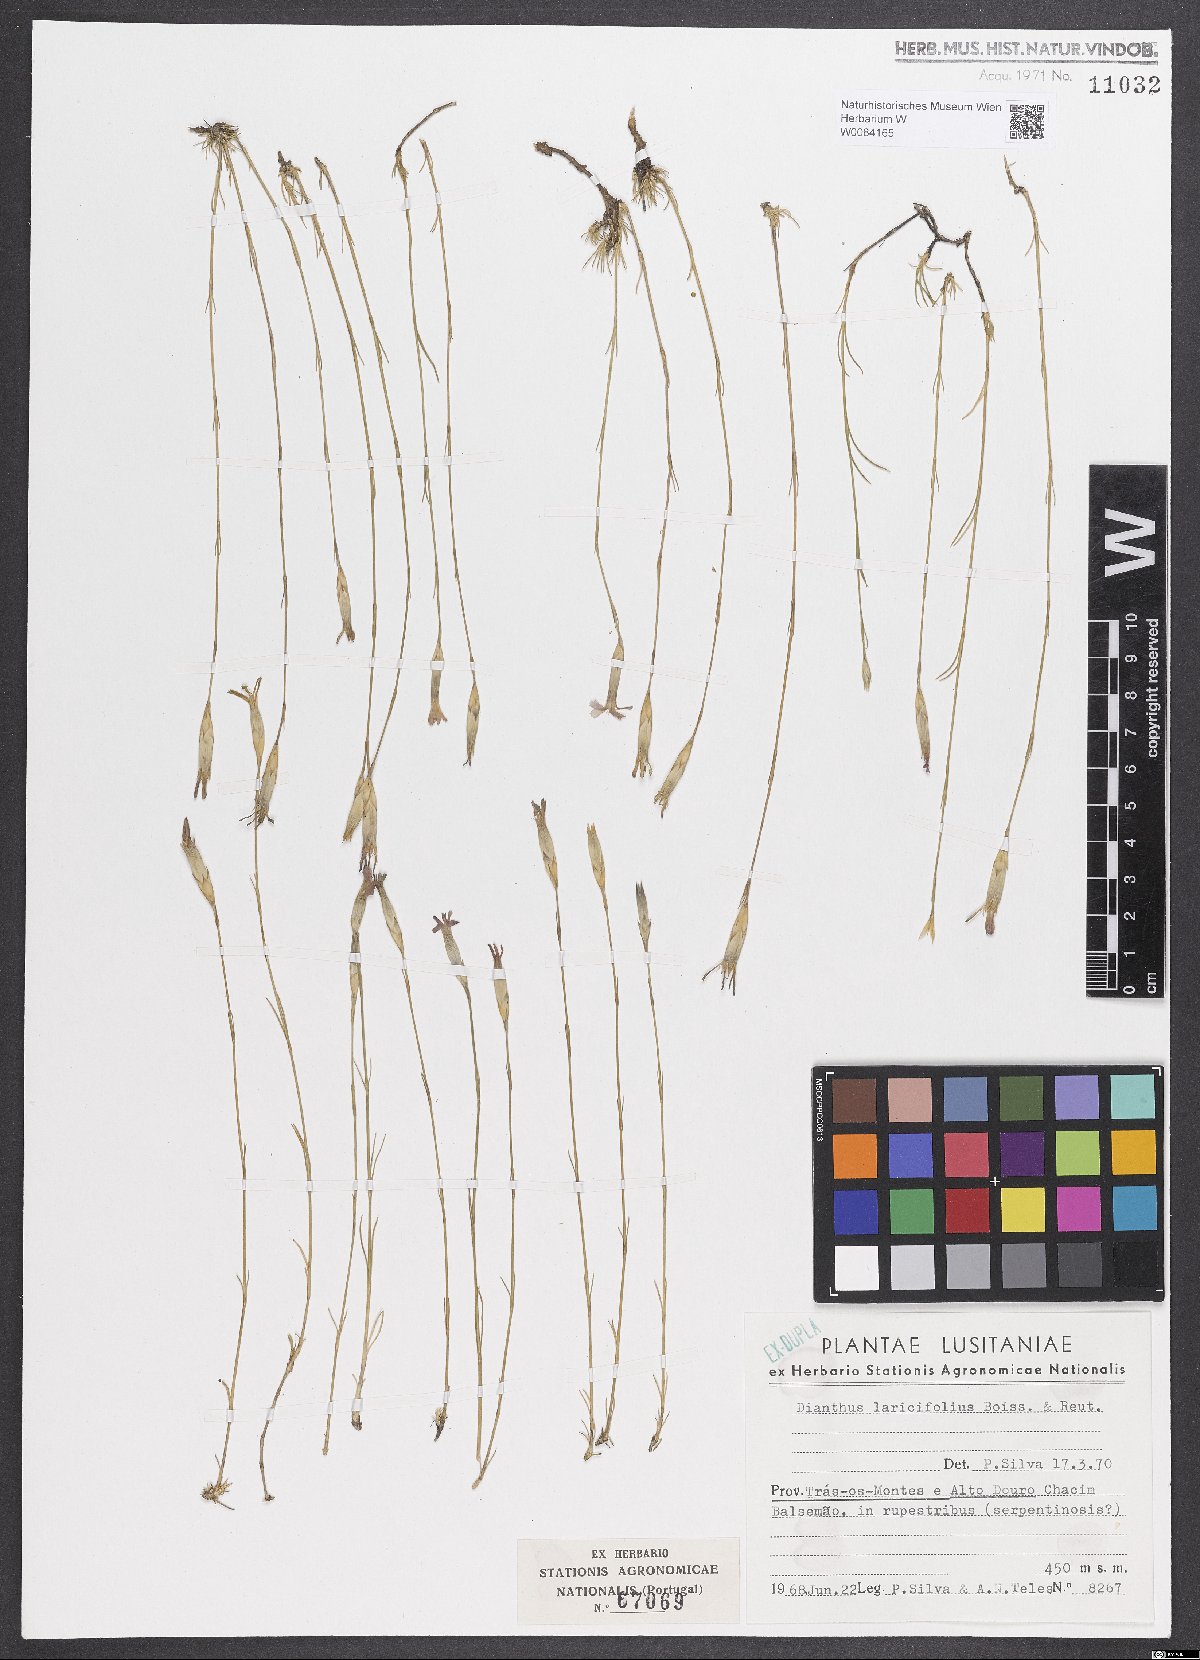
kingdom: Plantae
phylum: Tracheophyta
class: Magnoliopsida
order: Caryophyllales
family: Caryophyllaceae
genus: Dianthus
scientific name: Dianthus laricifolius
